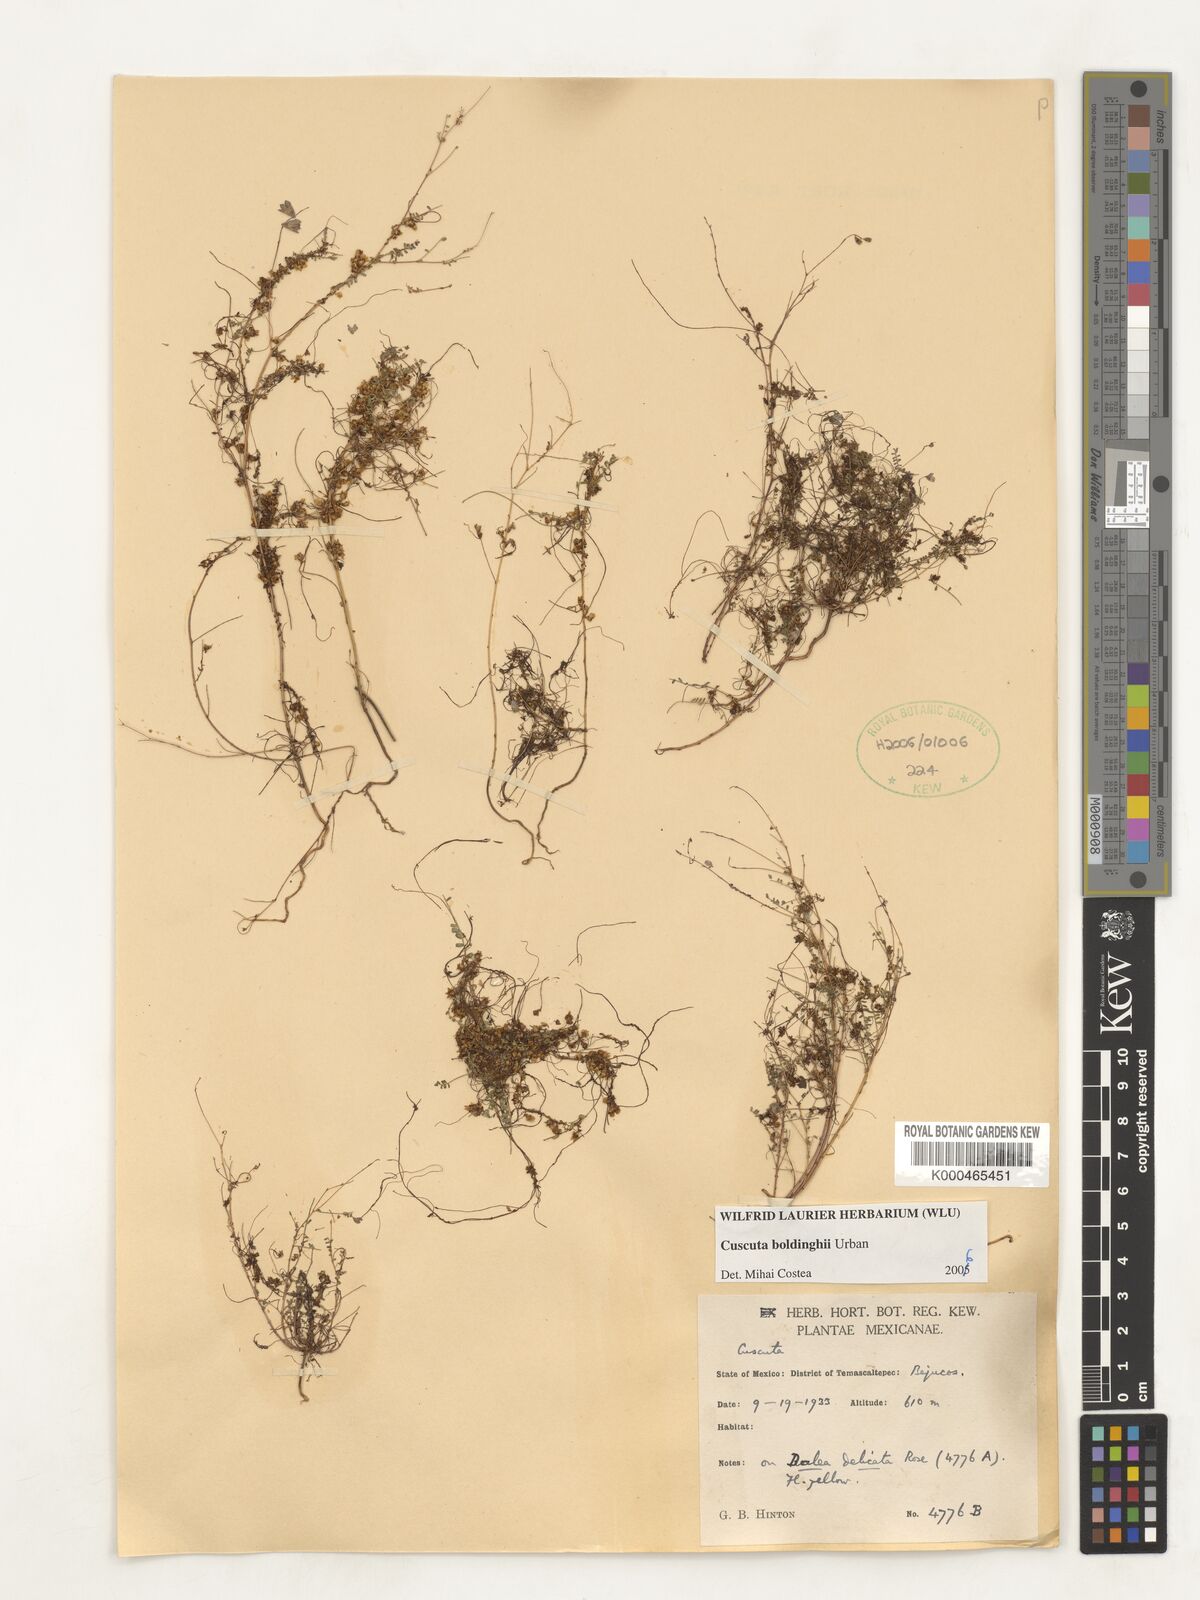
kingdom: Plantae
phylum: Tracheophyta
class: Magnoliopsida
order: Solanales
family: Convolvulaceae
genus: Cuscuta
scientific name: Cuscuta boldinghii
